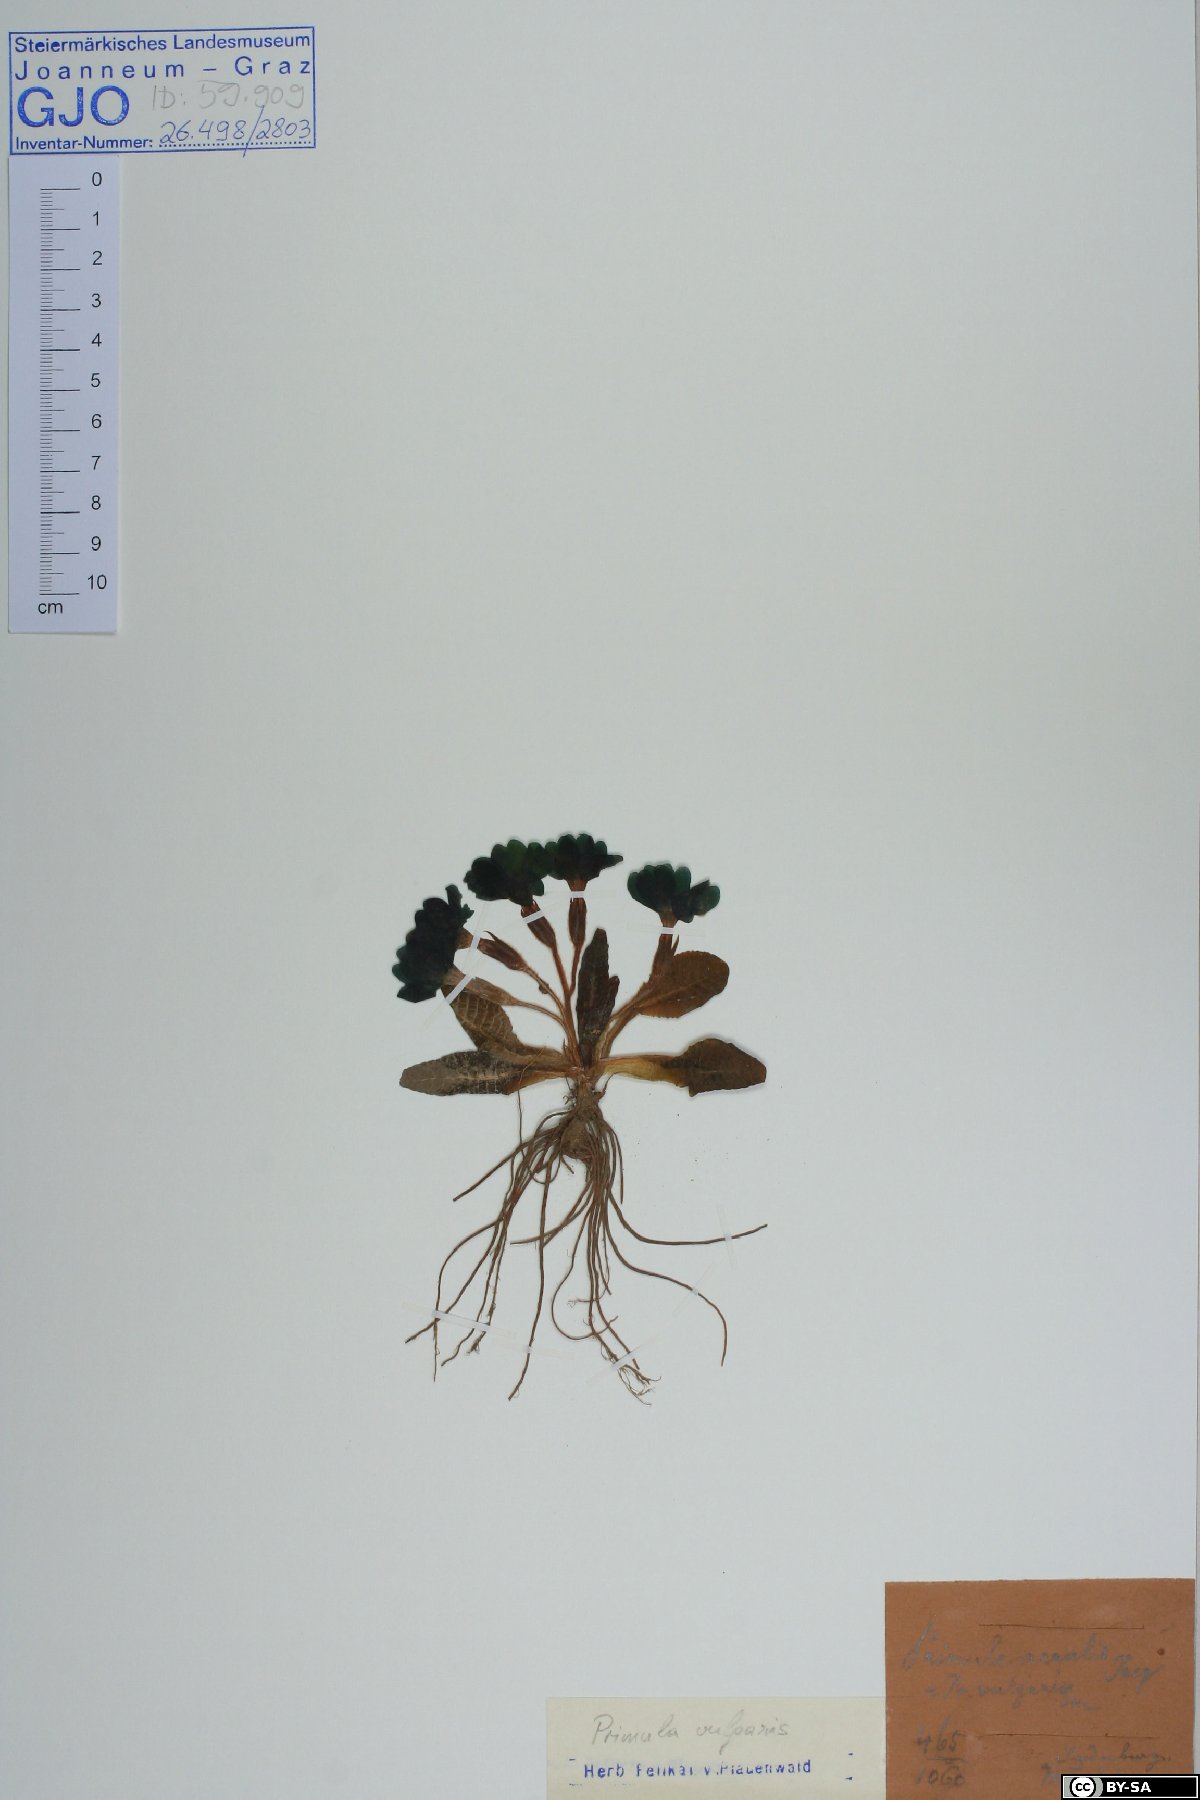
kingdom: Plantae
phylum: Tracheophyta
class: Magnoliopsida
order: Ericales
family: Primulaceae
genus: Primula
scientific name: Primula vulgaris
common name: Primrose
